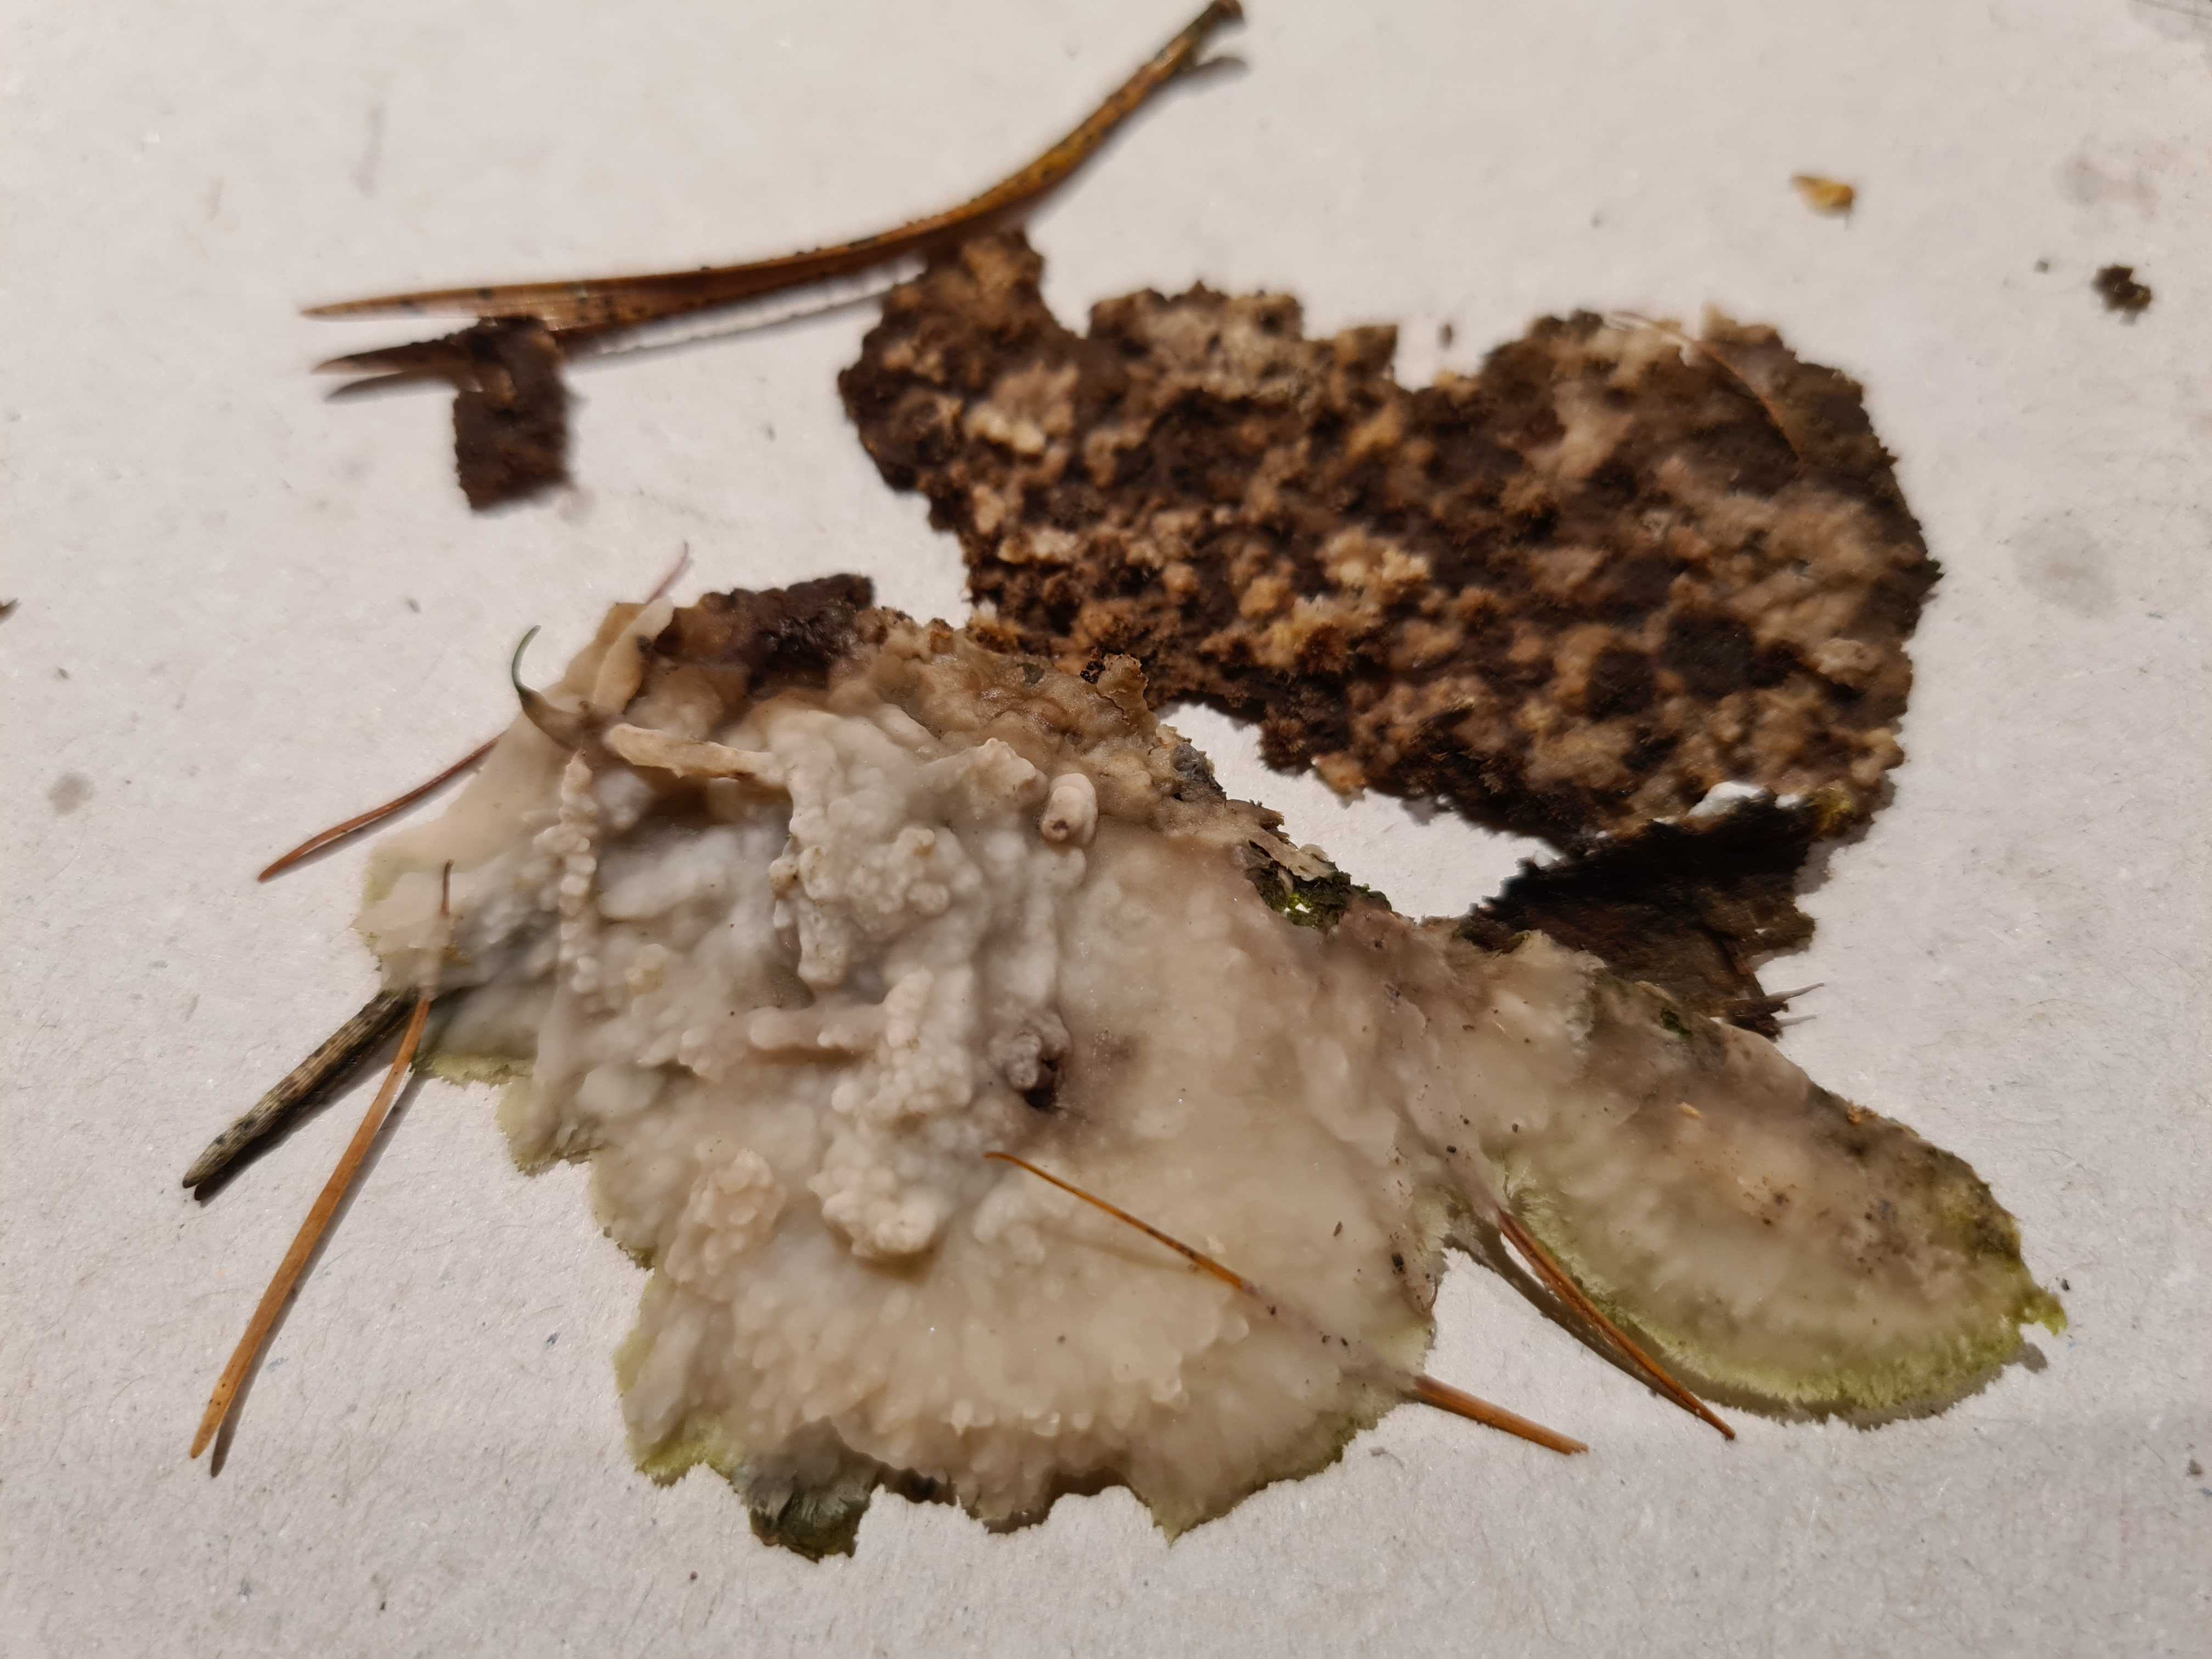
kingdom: Fungi
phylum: Basidiomycota
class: Agaricomycetes
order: Polyporales
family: Phanerochaetaceae
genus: Phlebiopsis
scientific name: Phlebiopsis gigantea
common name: kæmpebarksvamp
